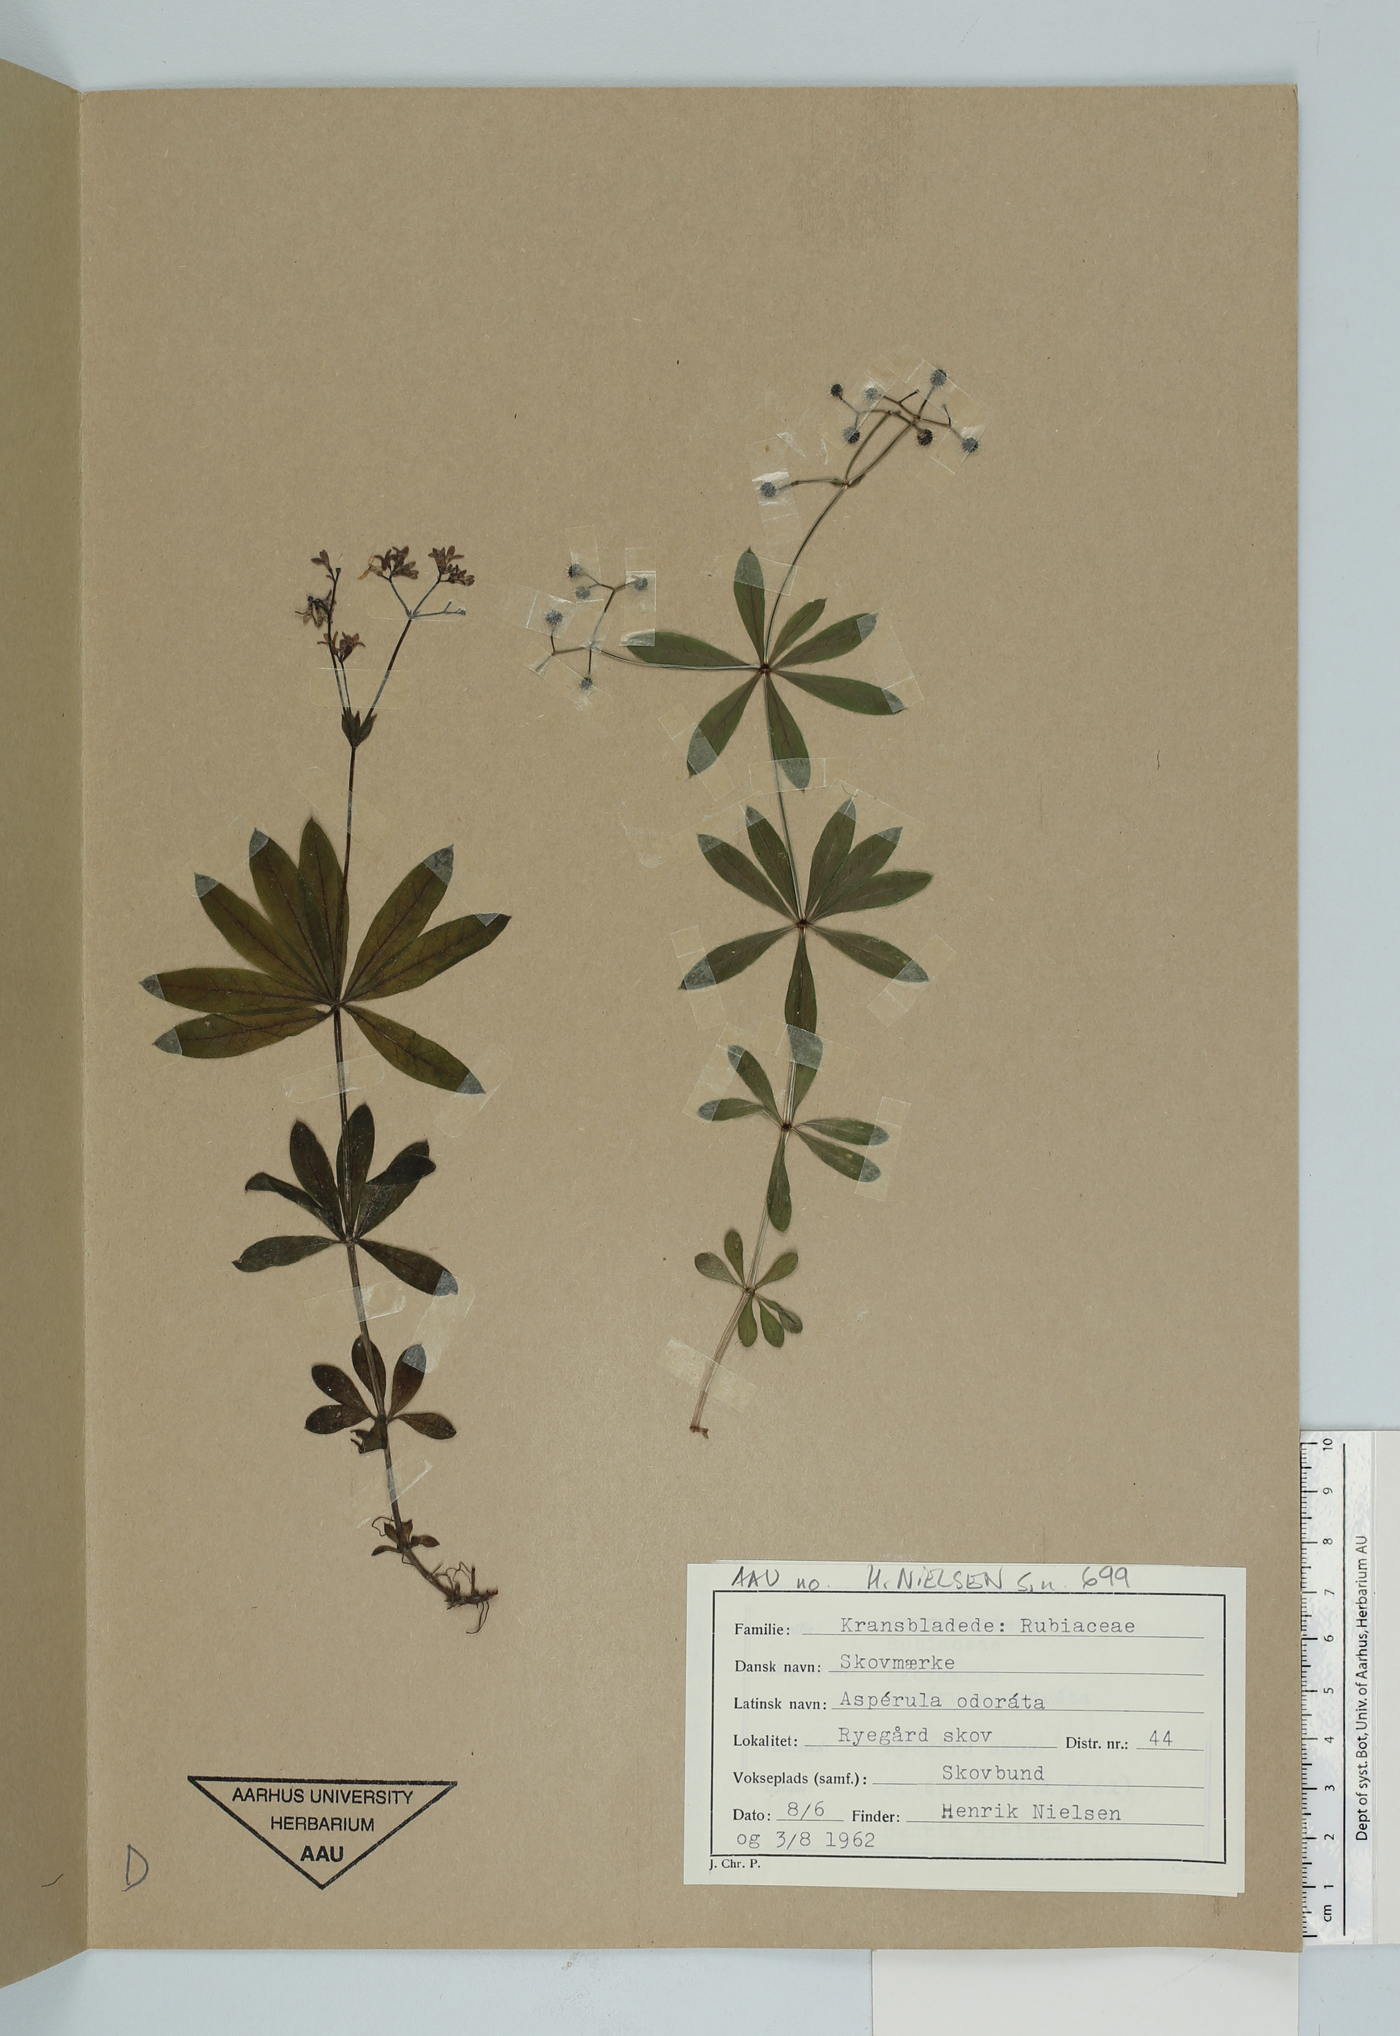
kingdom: Plantae
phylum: Tracheophyta
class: Magnoliopsida
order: Gentianales
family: Rubiaceae
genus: Galium
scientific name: Galium odoratum
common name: Sweet woodruff
